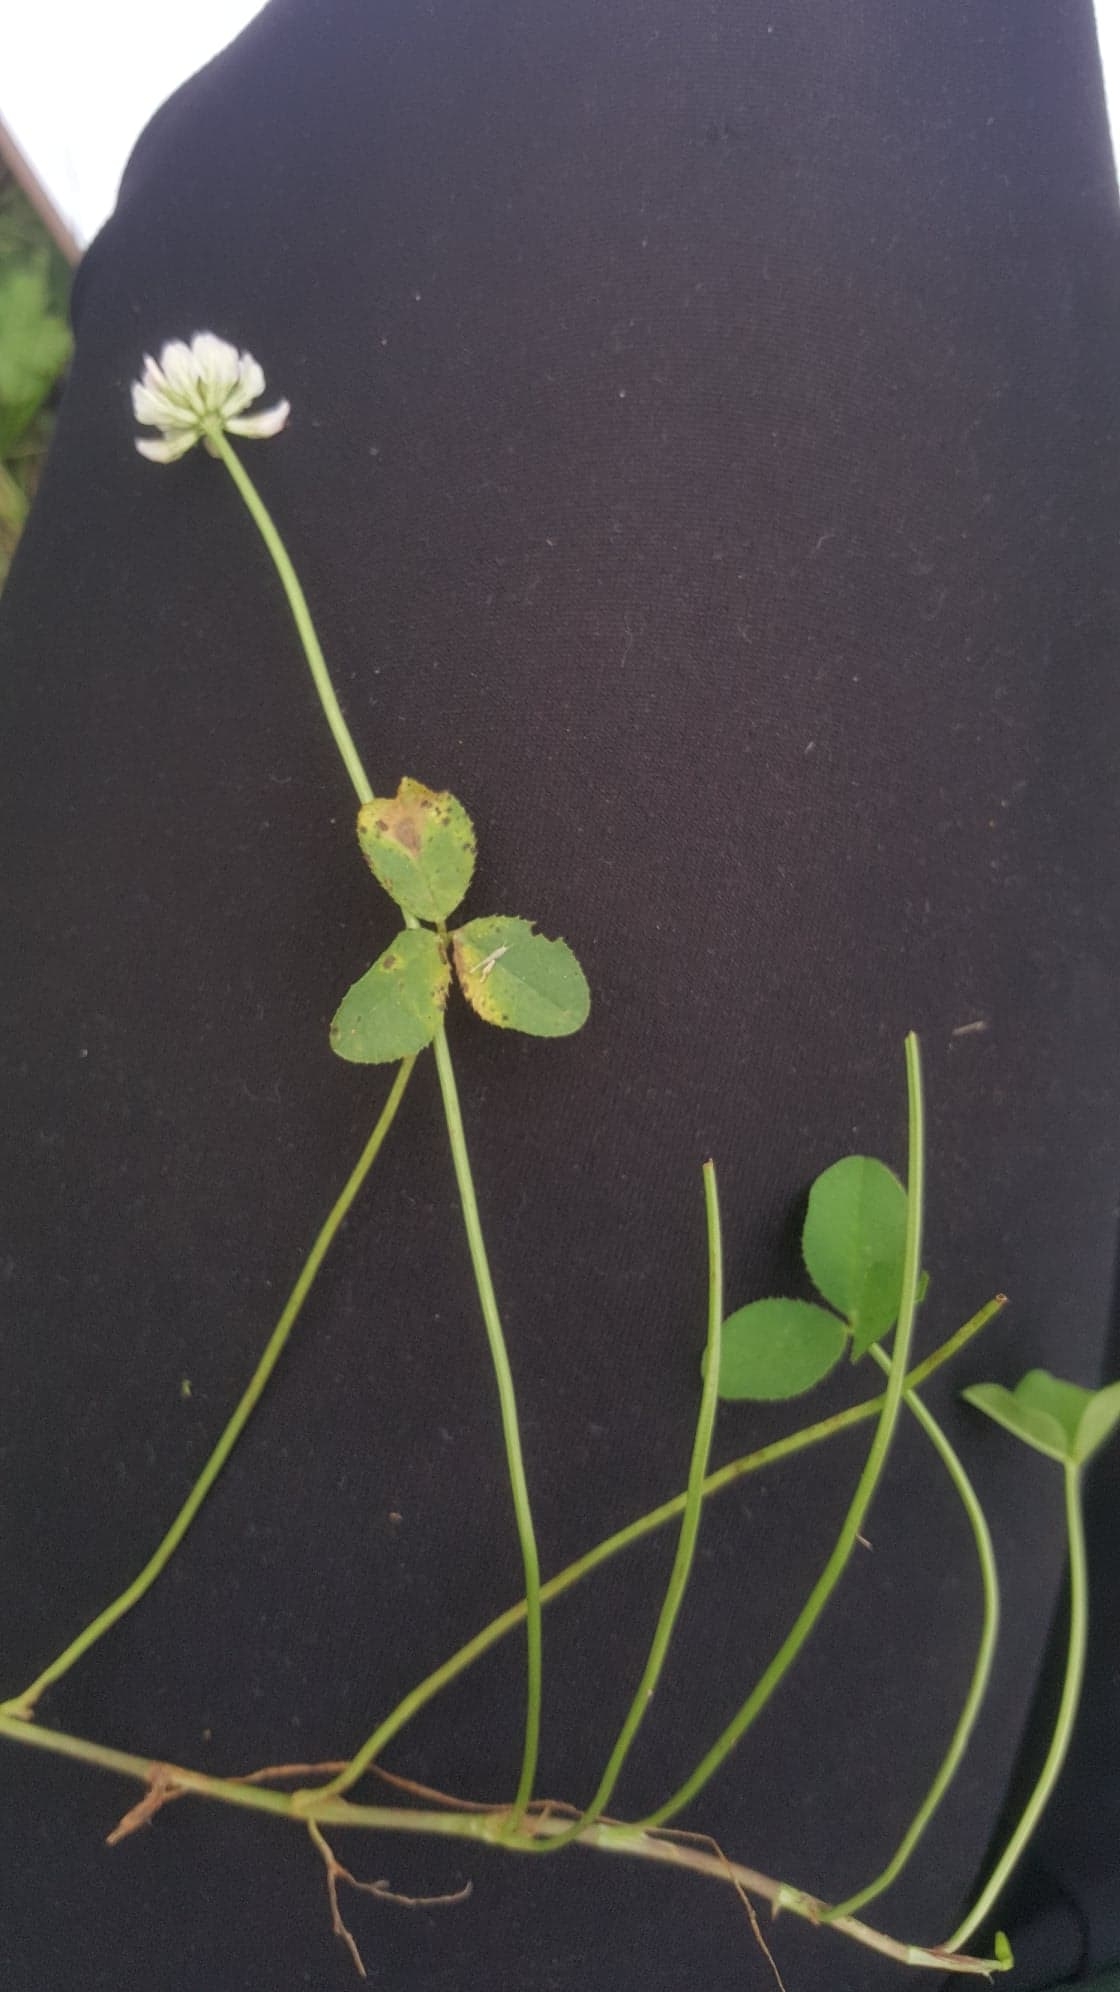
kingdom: Plantae
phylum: Tracheophyta
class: Magnoliopsida
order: Fabales
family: Fabaceae
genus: Trifolium
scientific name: Trifolium repens
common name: White Clover
